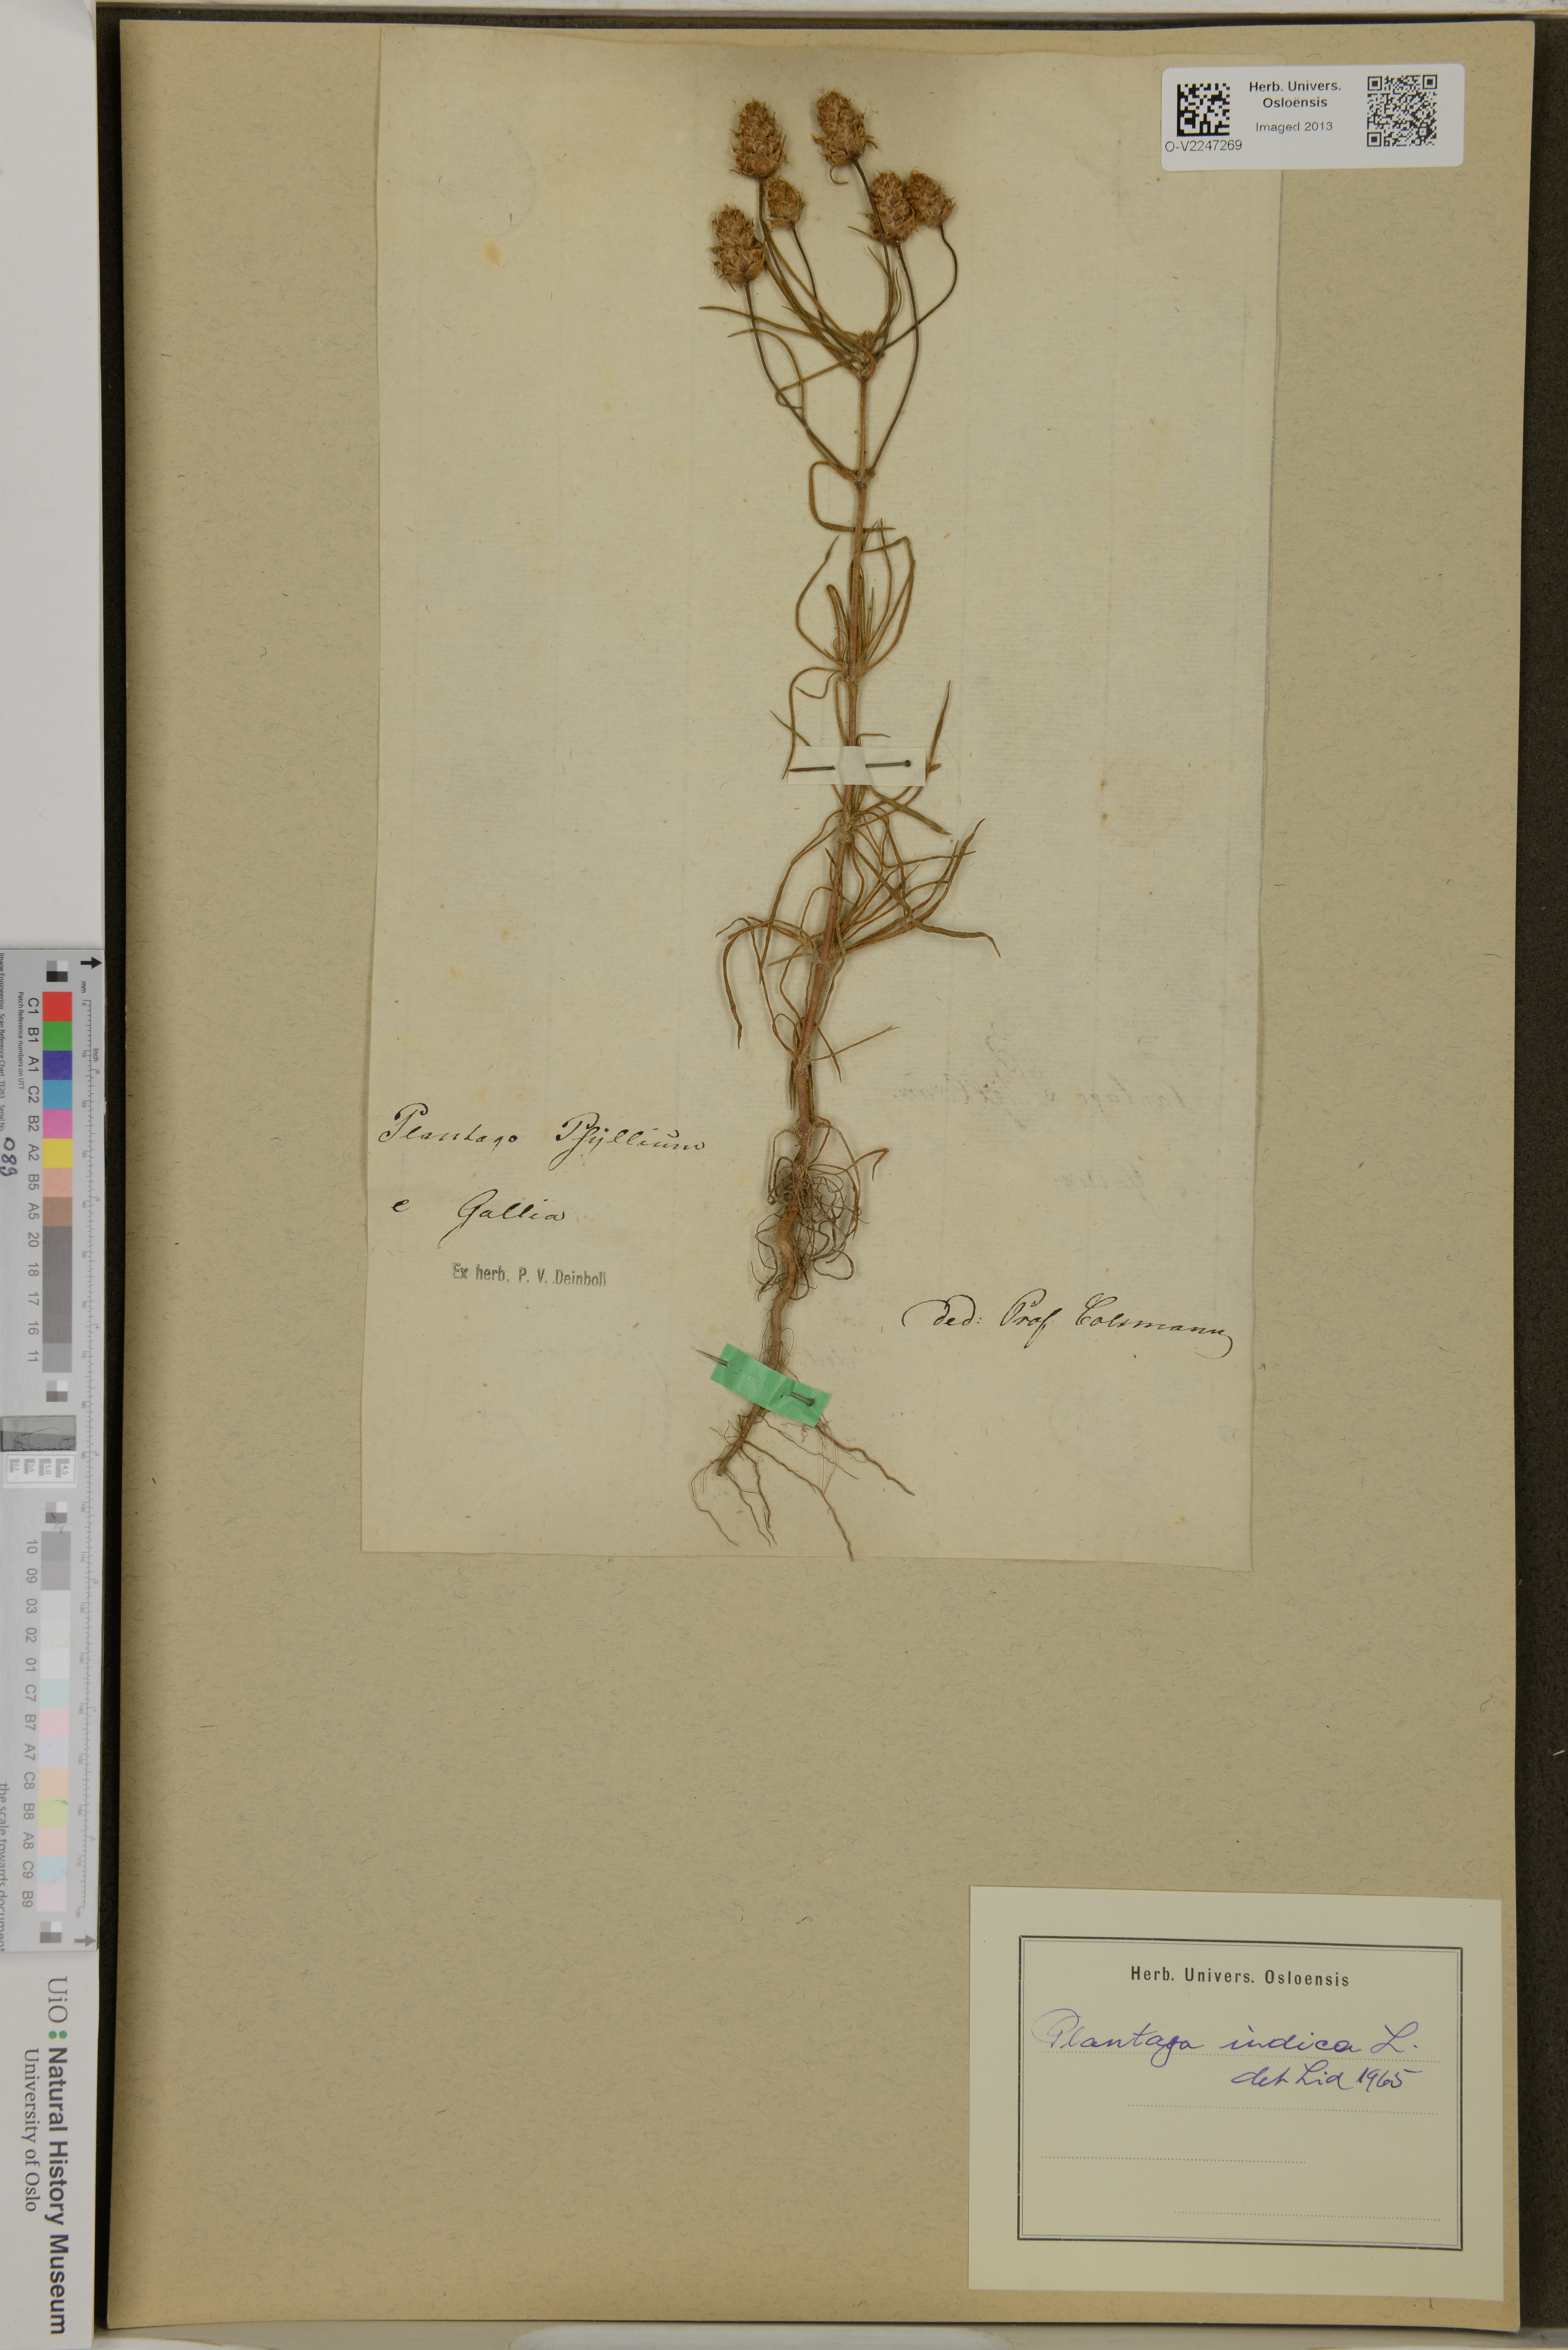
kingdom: Plantae
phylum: Tracheophyta
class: Magnoliopsida
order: Lamiales
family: Plantaginaceae
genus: Plantago
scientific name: Plantago arenaria
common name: Branched plantain
